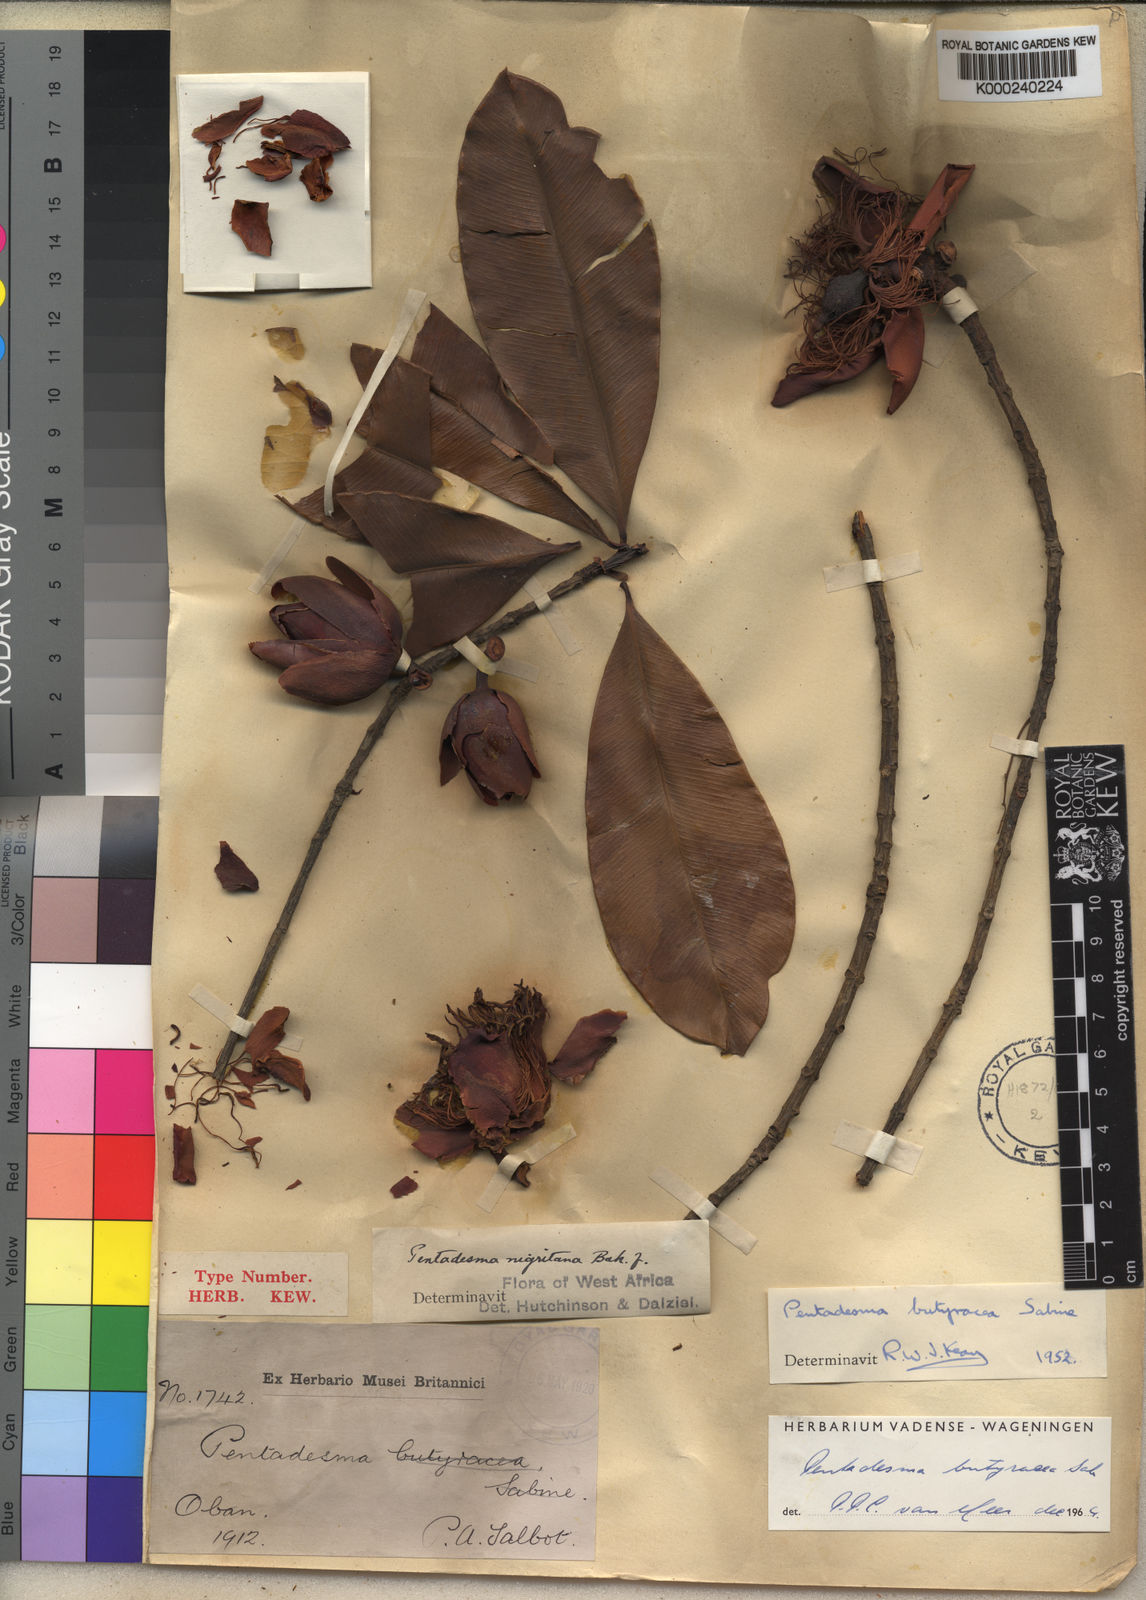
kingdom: Plantae
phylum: Tracheophyta
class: Magnoliopsida
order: Malpighiales
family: Clusiaceae
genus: Pentadesma
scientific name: Pentadesma butyracea
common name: Buttertree
